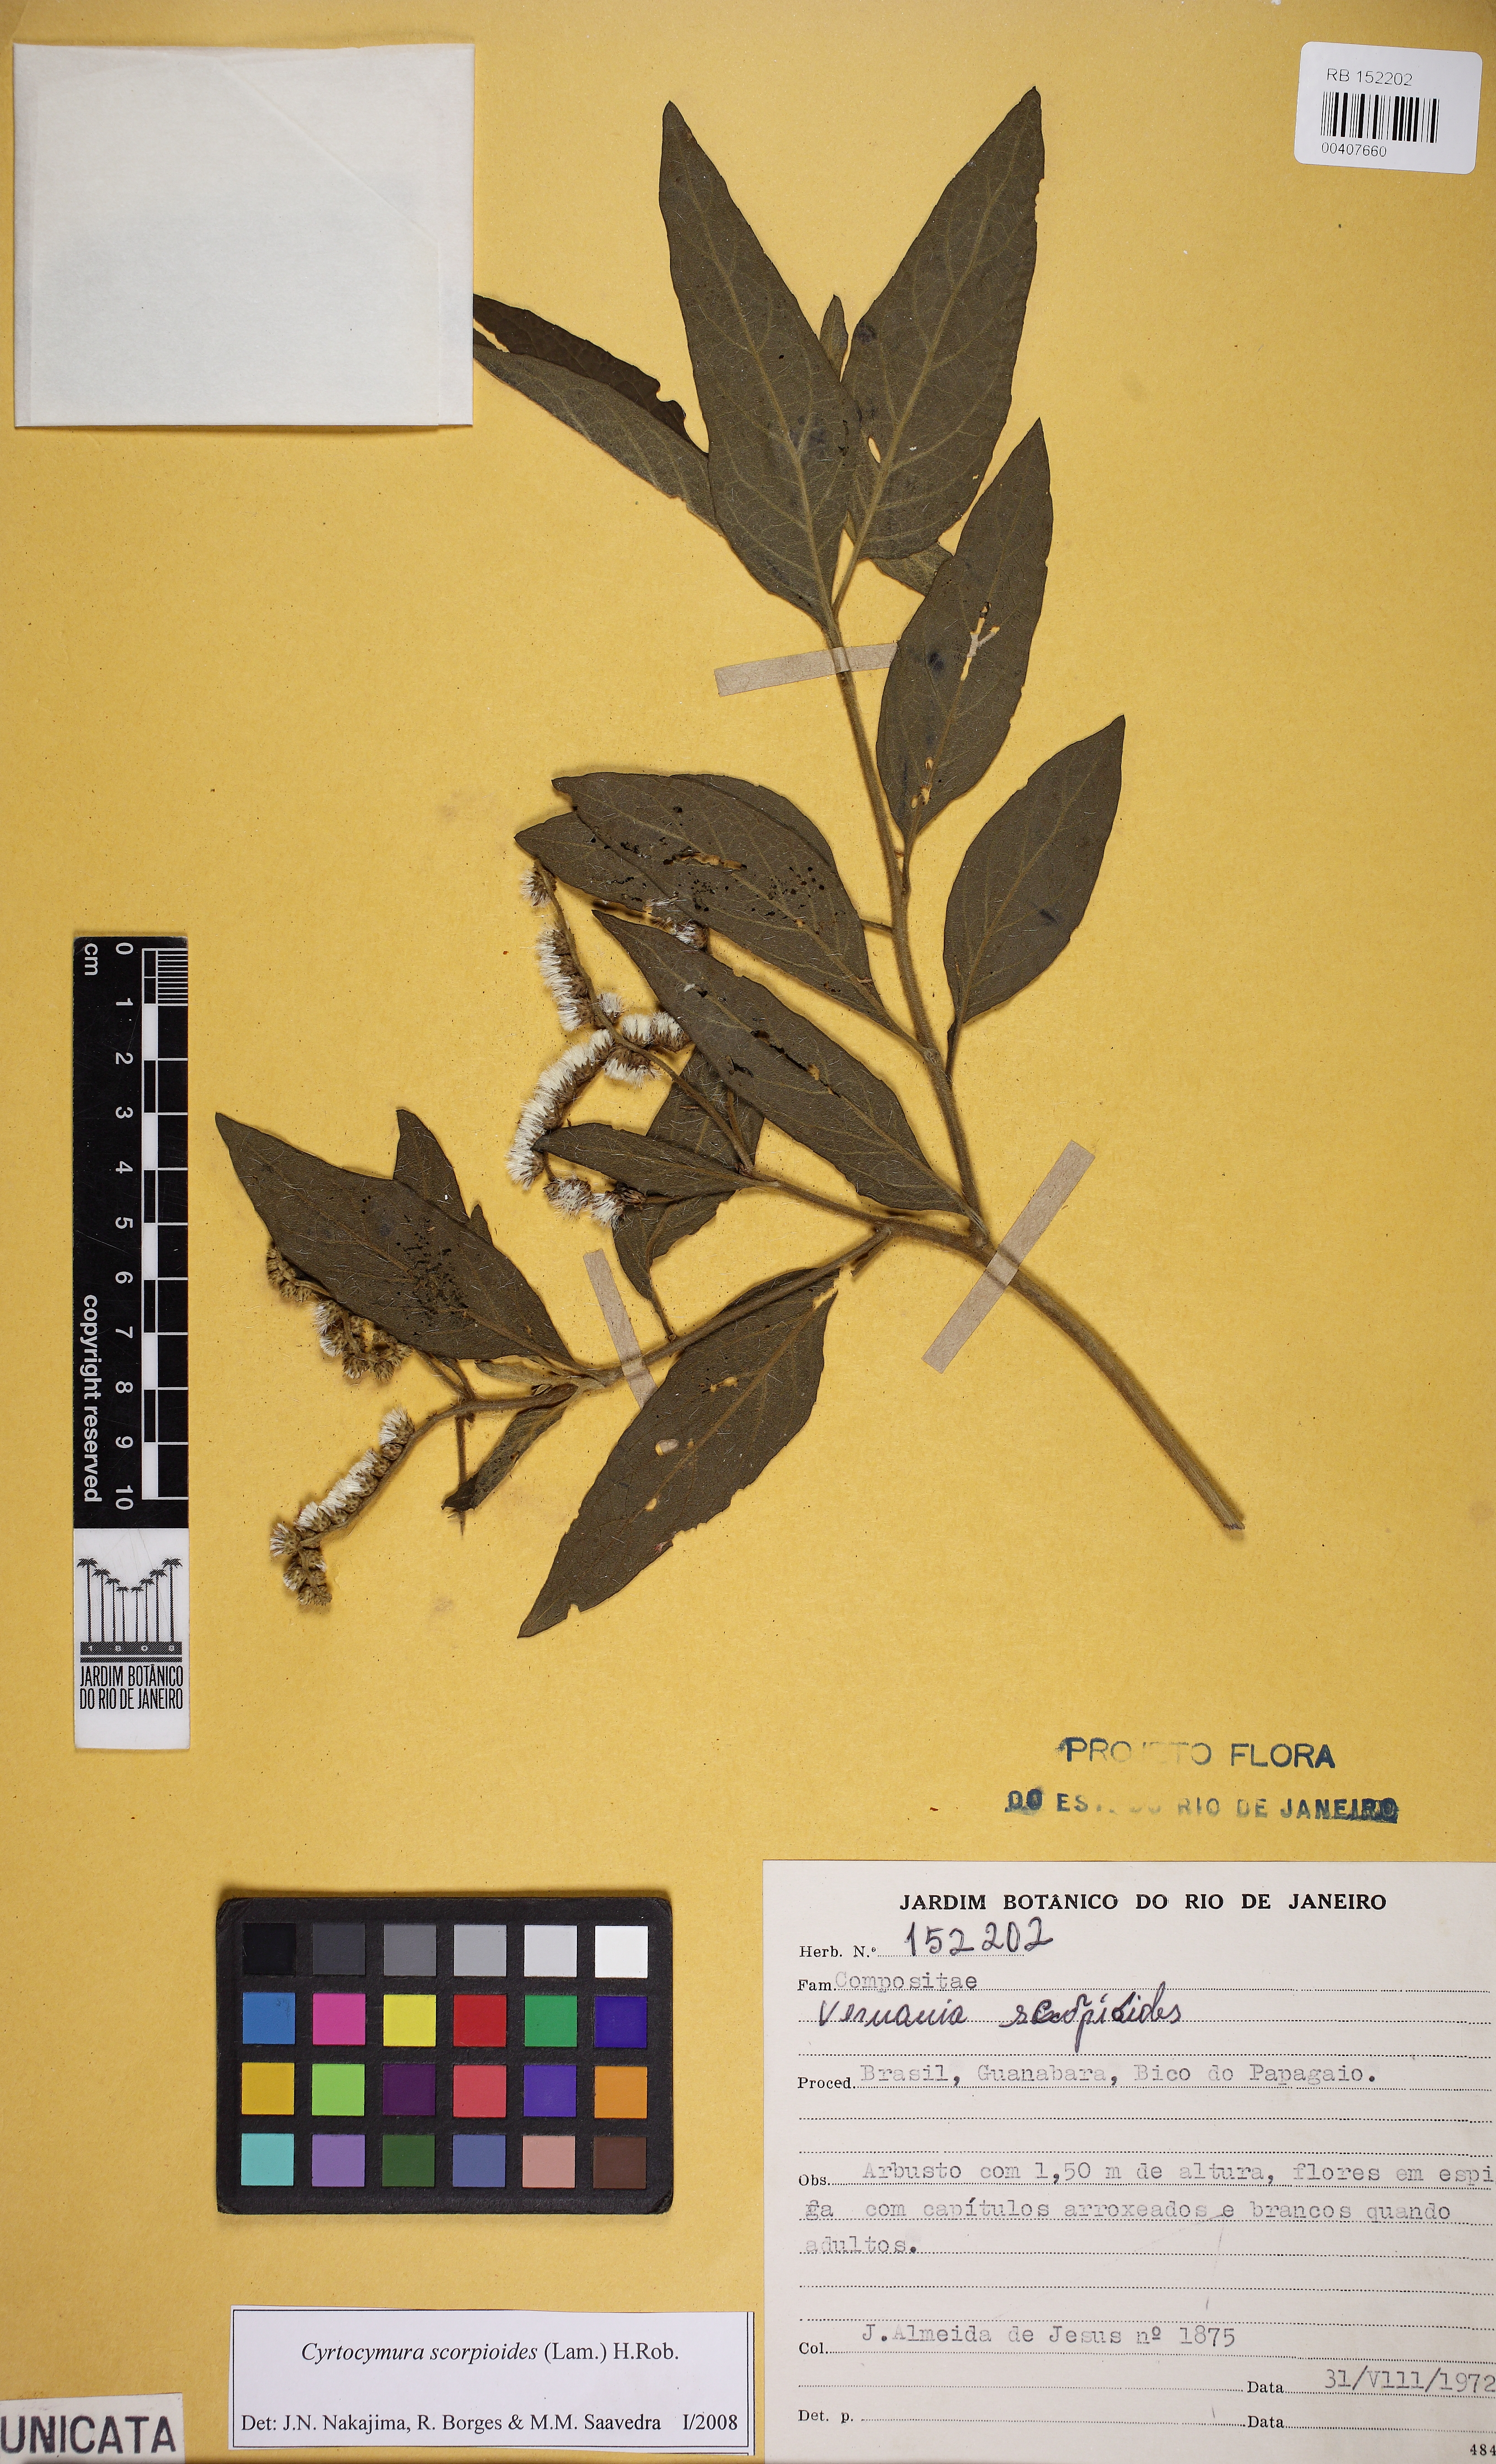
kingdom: Plantae
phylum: Tracheophyta
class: Magnoliopsida
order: Asterales
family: Asteraceae
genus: Cyrtocymura
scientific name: Cyrtocymura scorpioides
